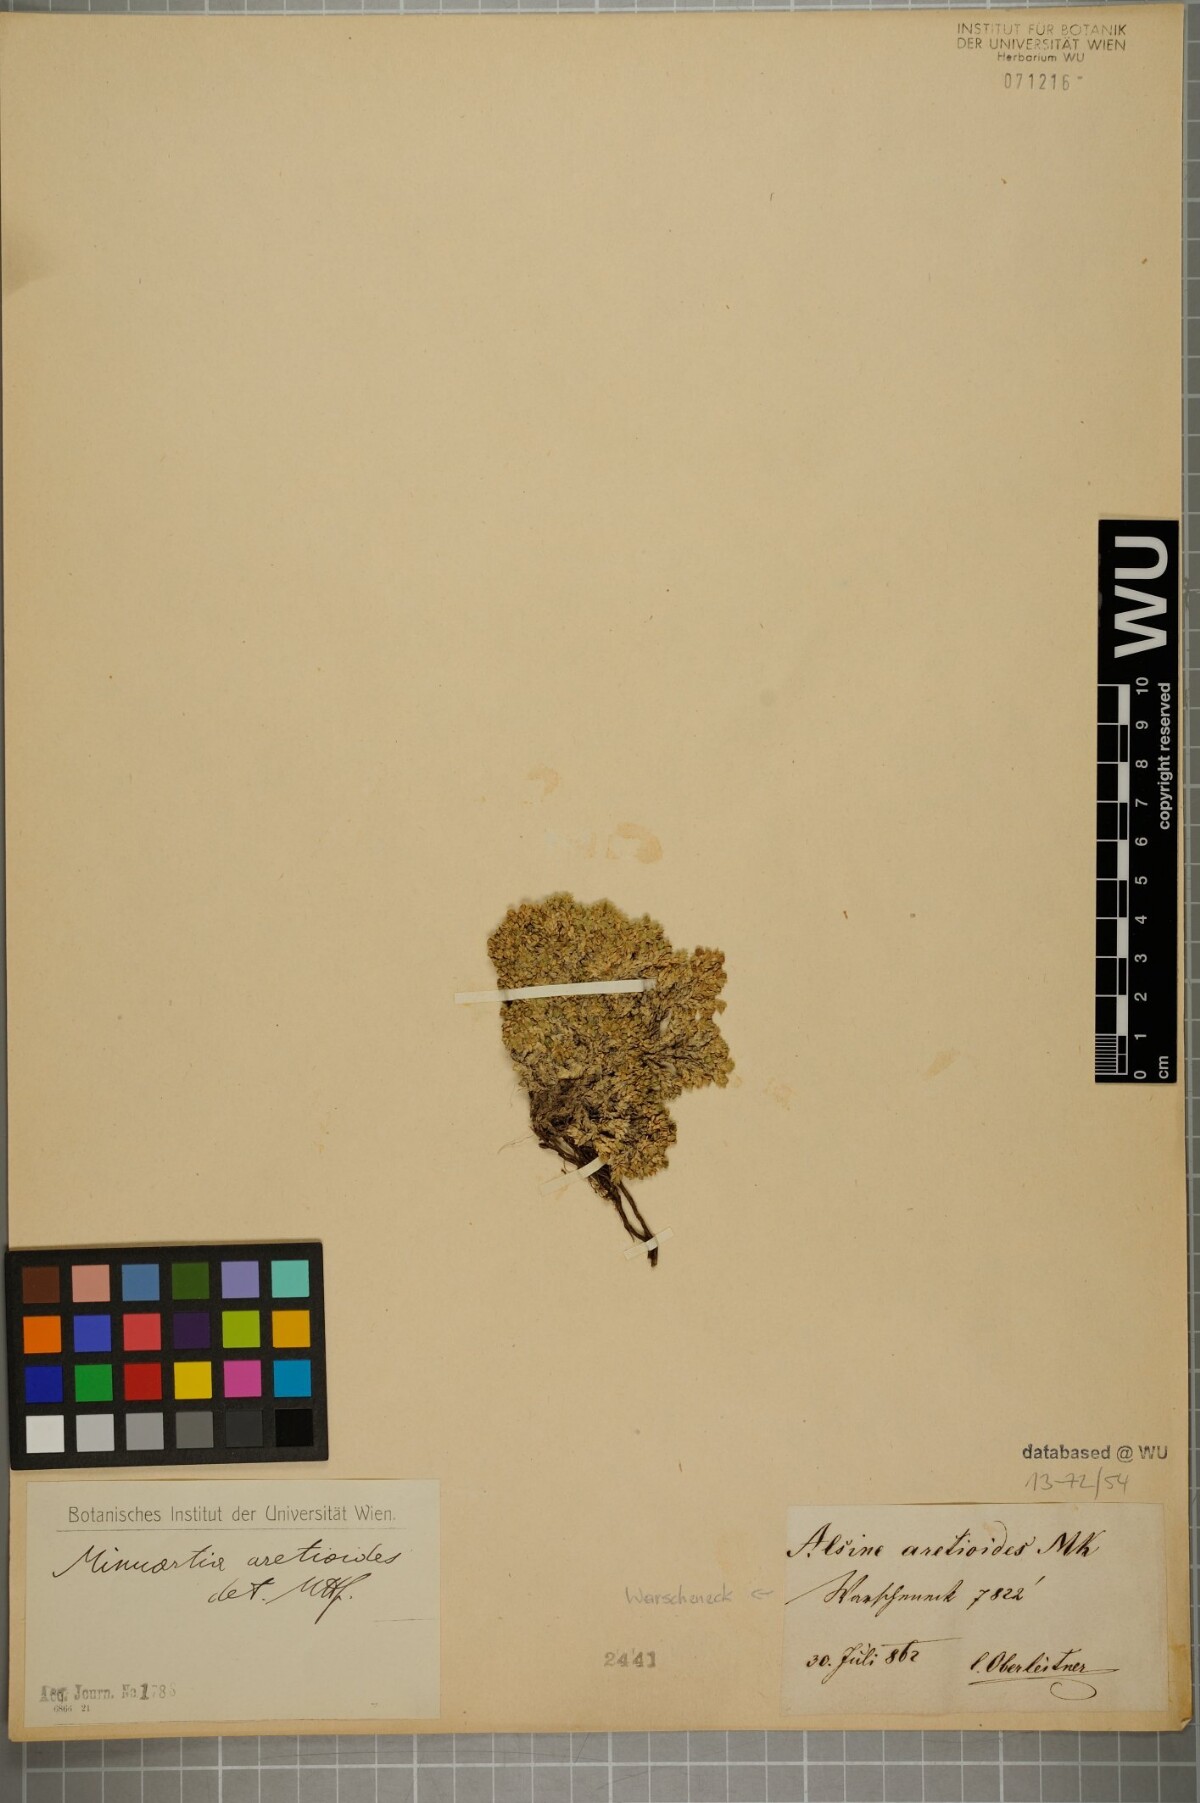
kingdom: Plantae
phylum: Tracheophyta
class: Magnoliopsida
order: Caryophyllales
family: Caryophyllaceae
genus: Facchinia
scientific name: Facchinia cherlerioides
